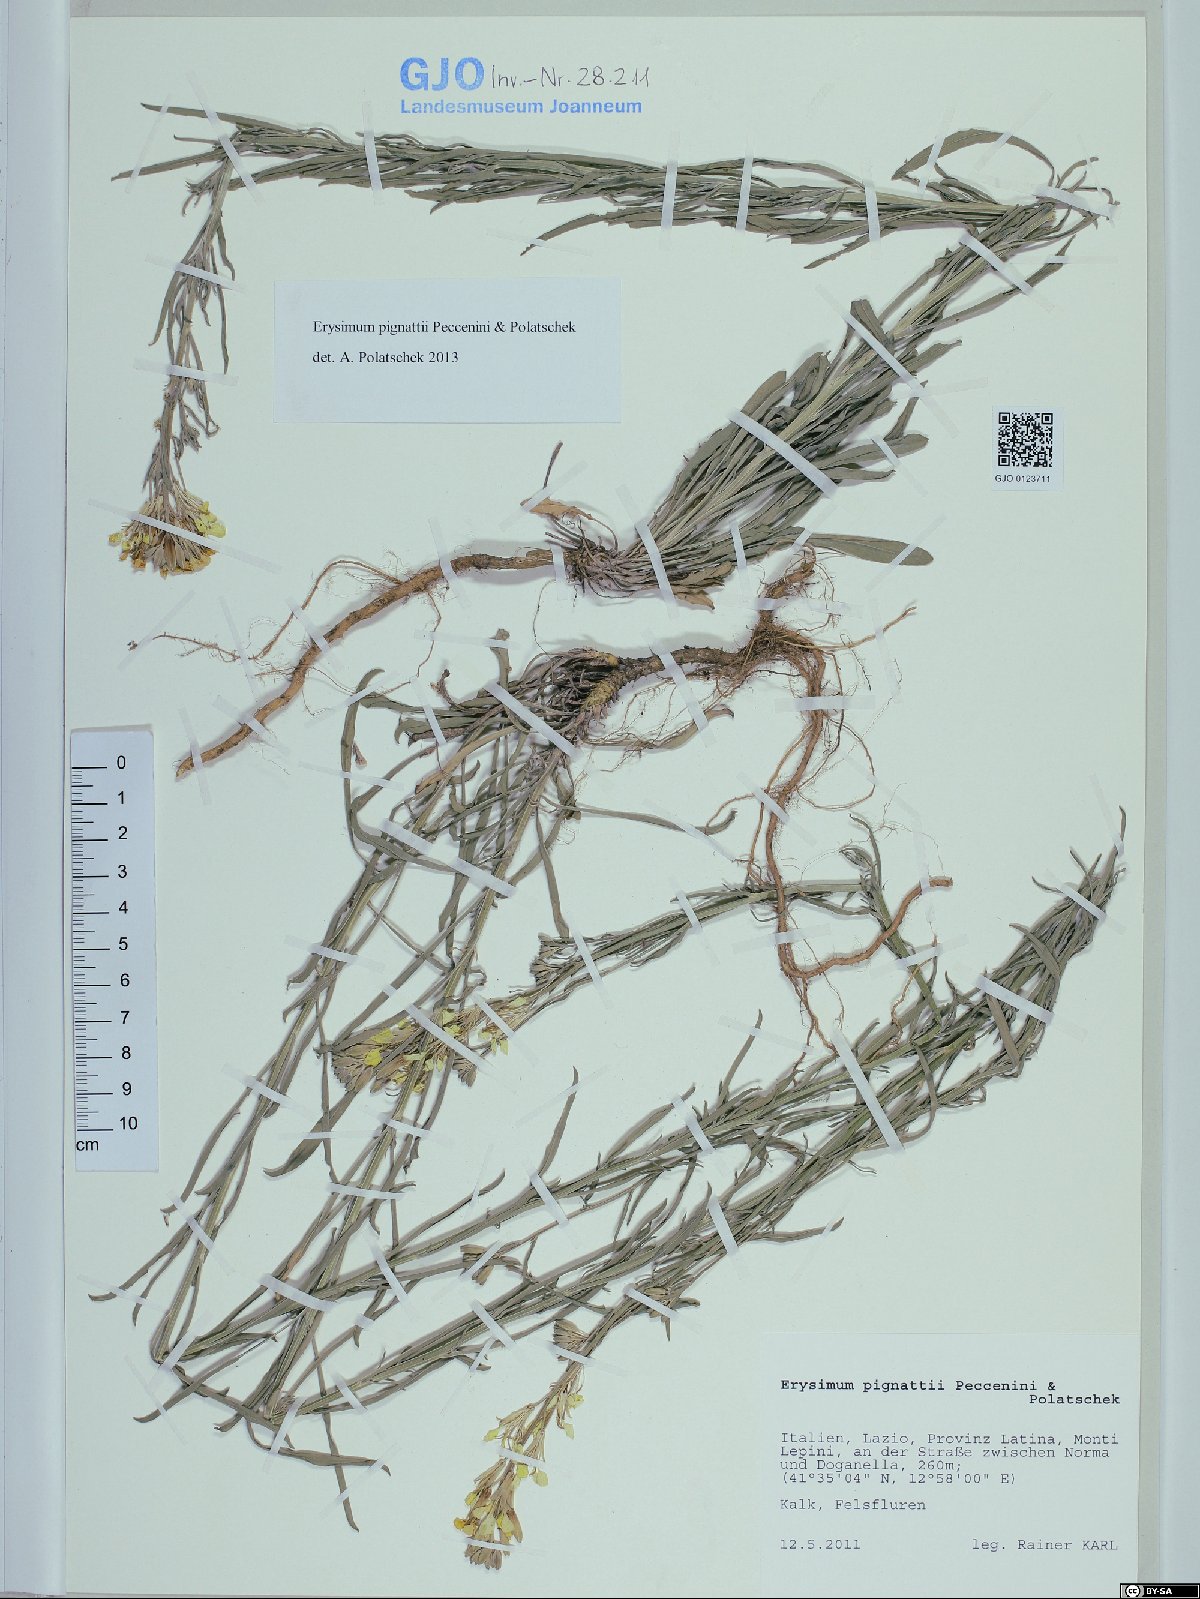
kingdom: Plantae
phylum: Tracheophyta
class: Magnoliopsida
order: Brassicales
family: Brassicaceae
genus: Erysimum
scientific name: Erysimum pignattii
